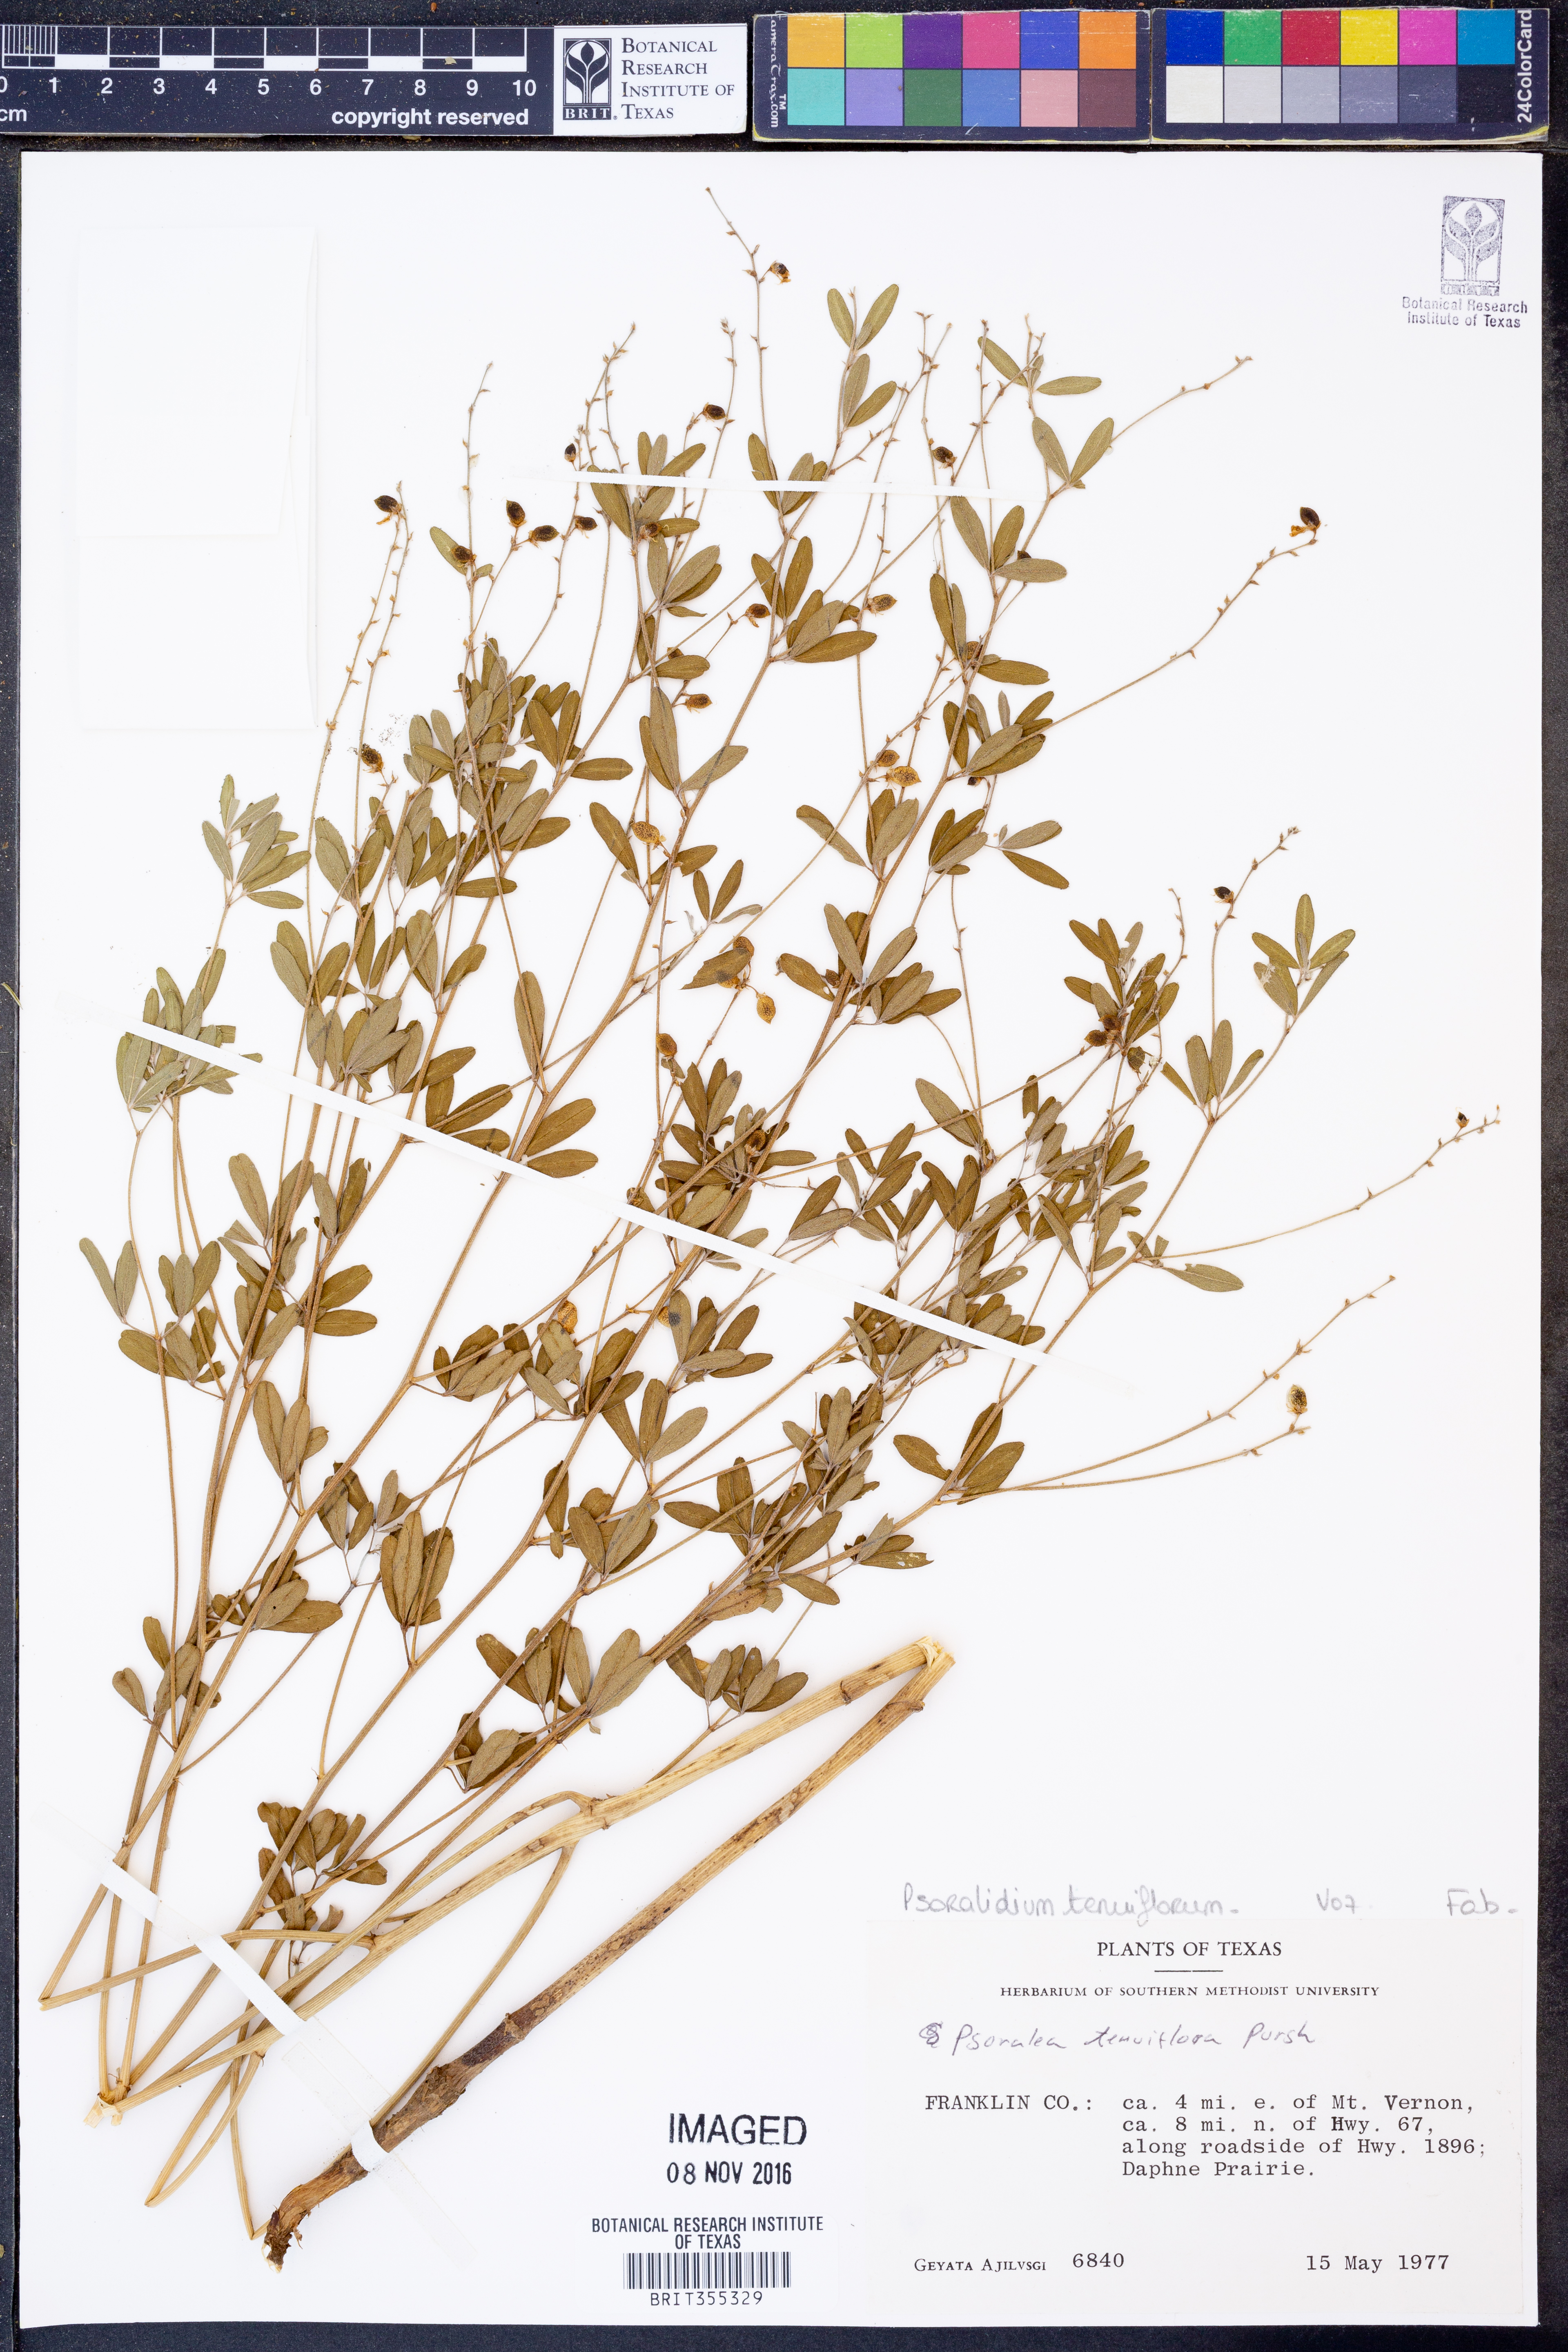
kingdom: Plantae
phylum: Tracheophyta
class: Magnoliopsida
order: Fabales
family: Fabaceae
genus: Pediomelum
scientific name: Pediomelum tenuiflorum
